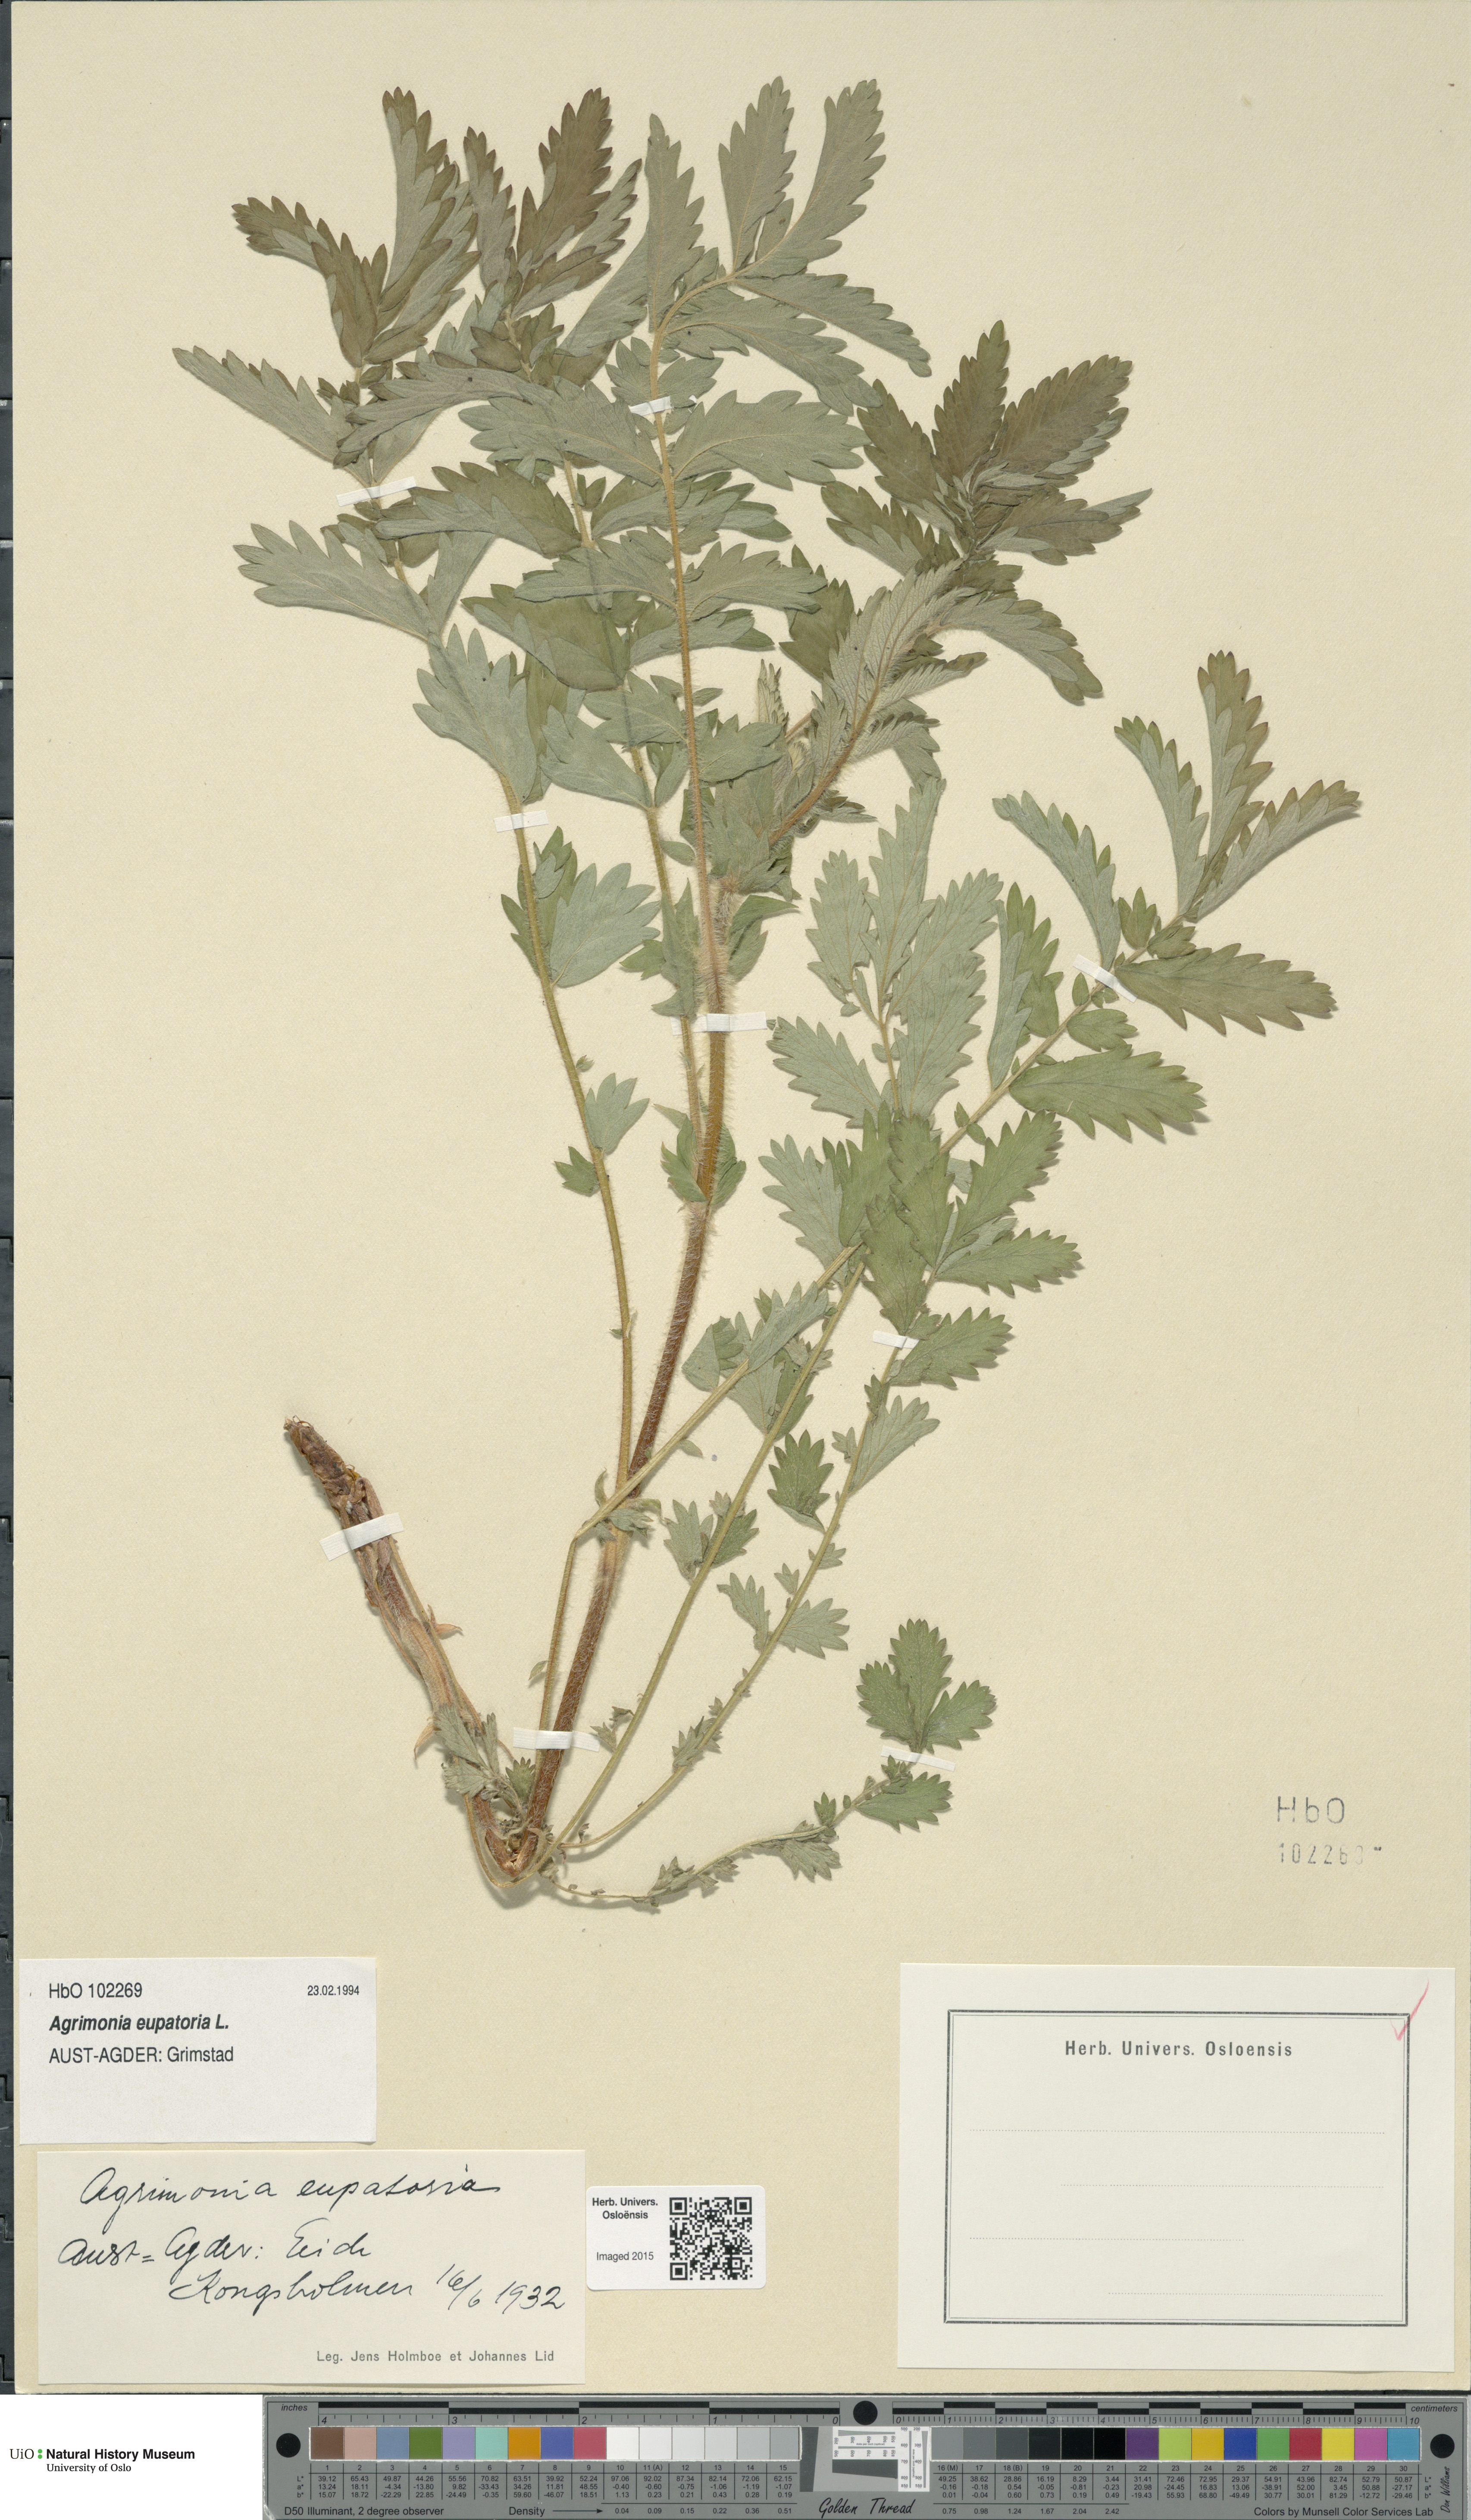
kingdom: Plantae
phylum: Tracheophyta
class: Magnoliopsida
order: Rosales
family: Rosaceae
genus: Agrimonia
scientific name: Agrimonia eupatoria
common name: Agrimony
